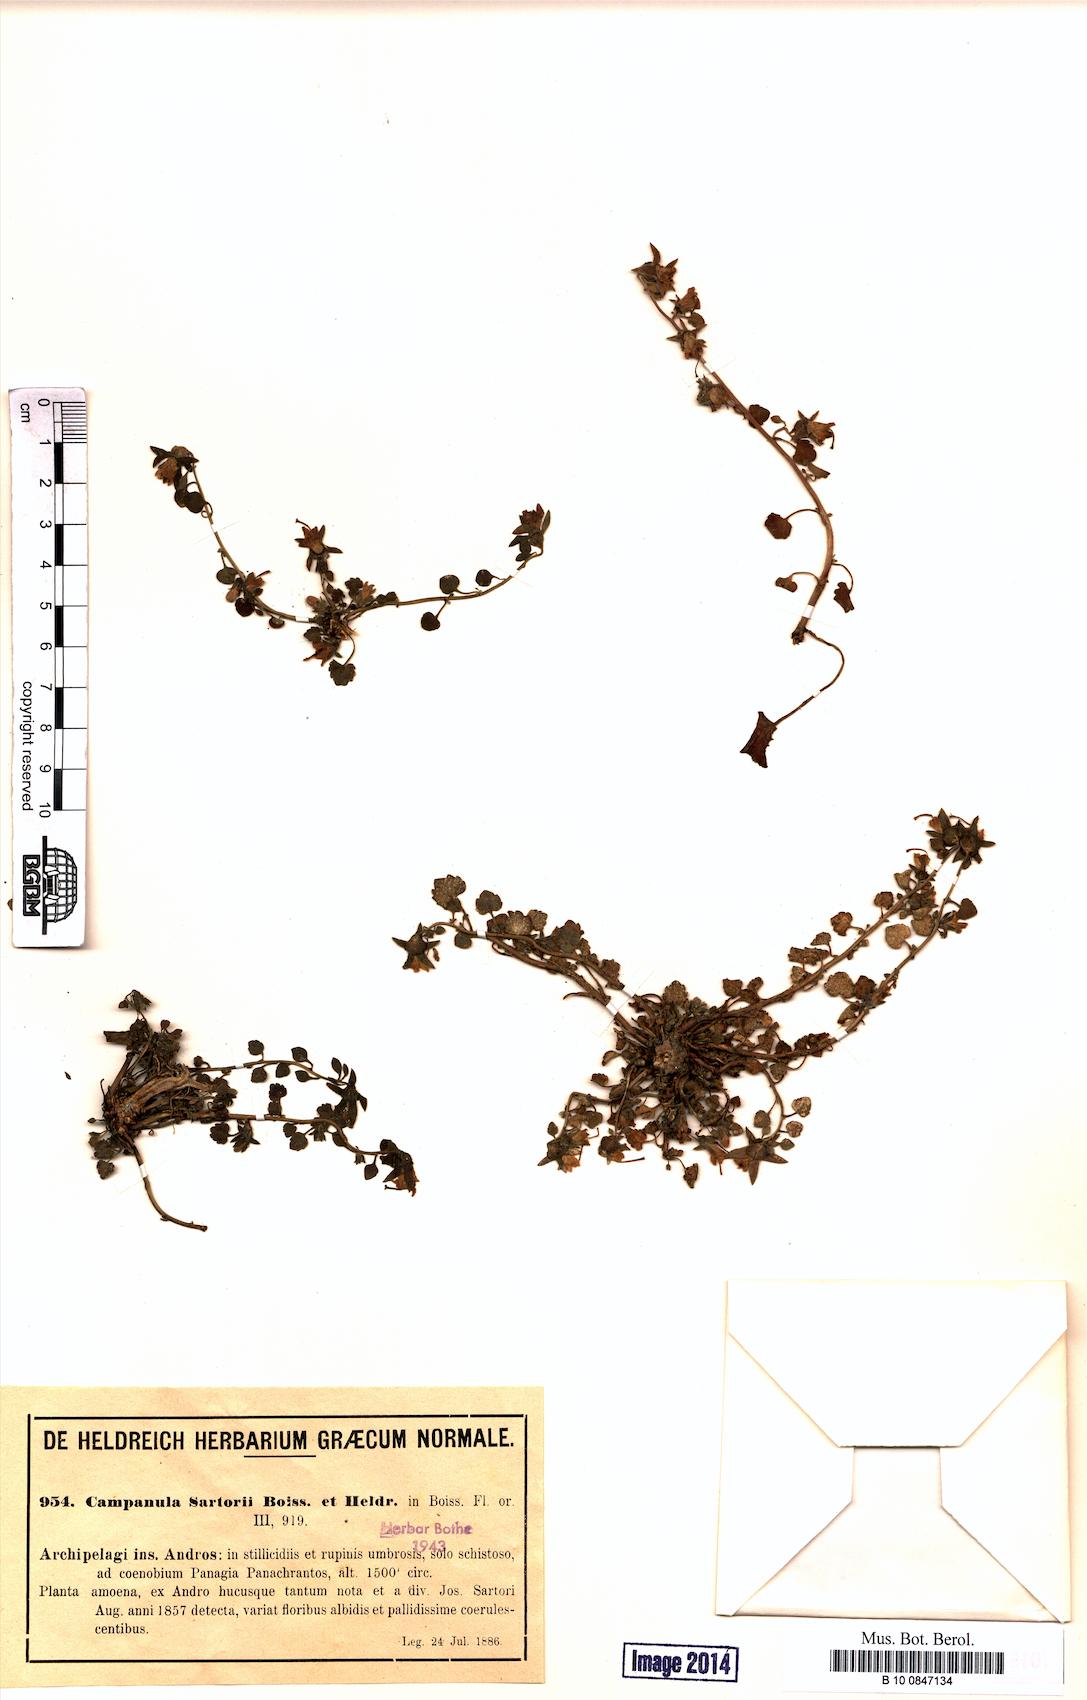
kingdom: Plantae
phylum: Tracheophyta
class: Magnoliopsida
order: Asterales
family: Campanulaceae
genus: Campanula
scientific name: Campanula sartorii
